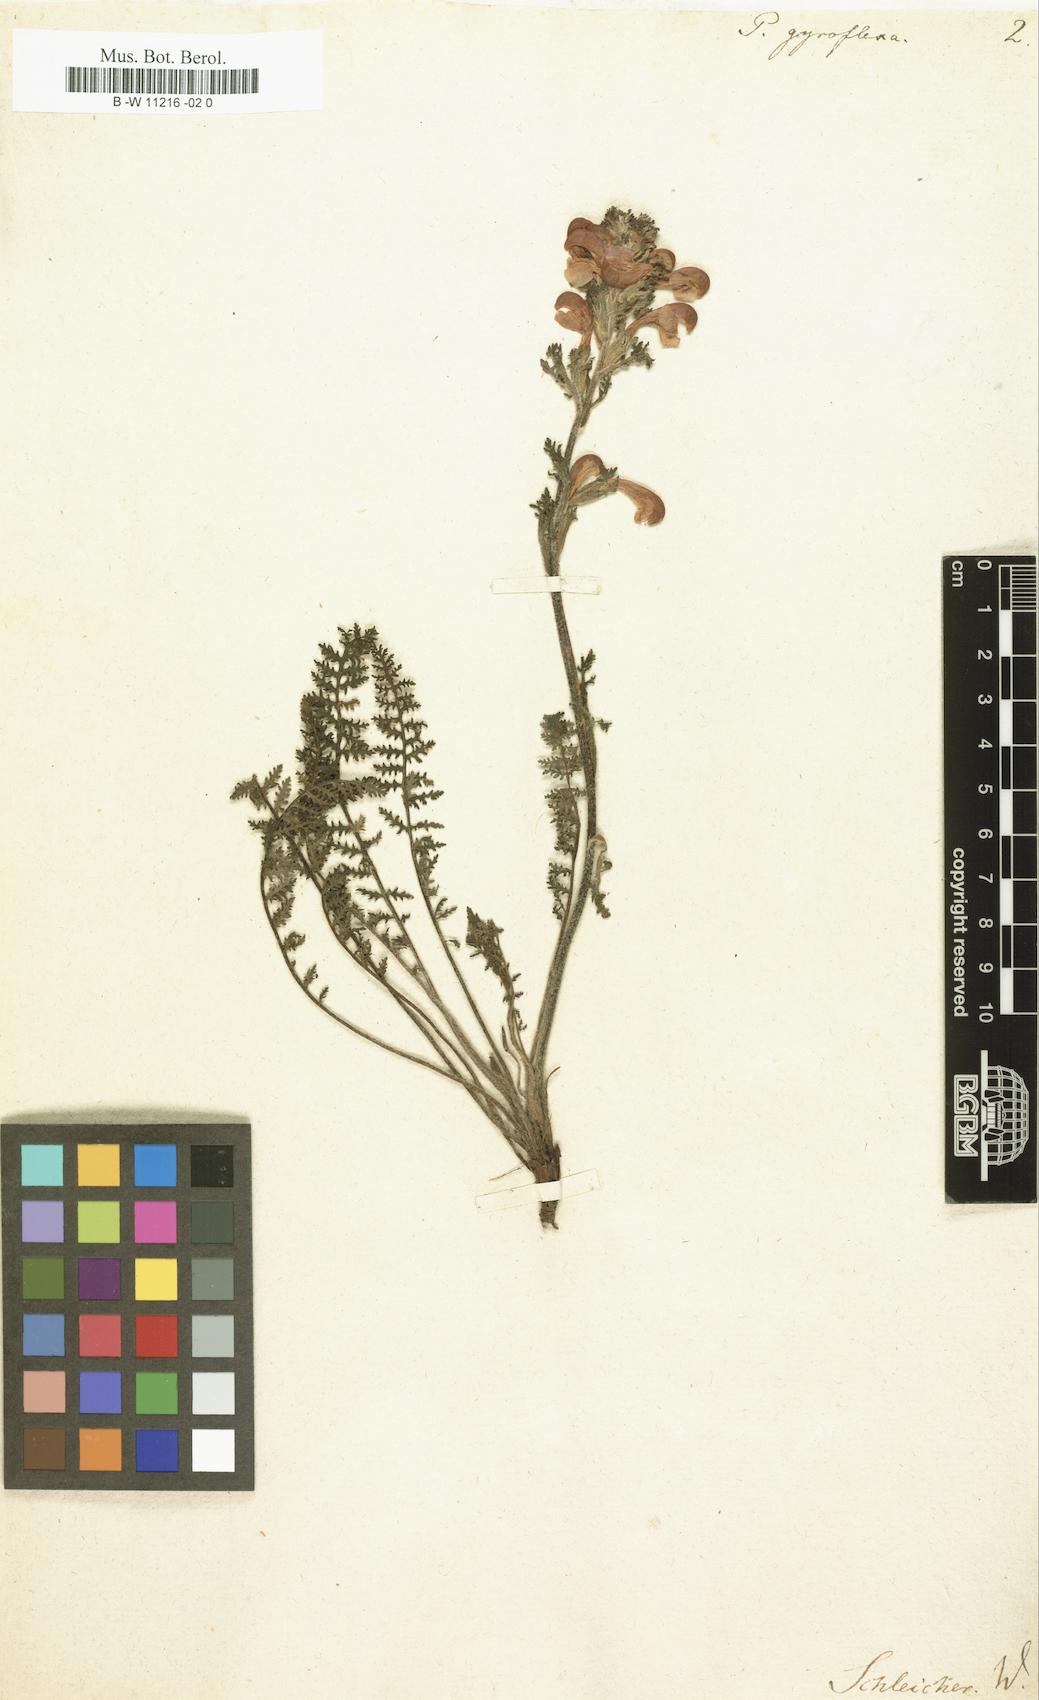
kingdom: Plantae
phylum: Tracheophyta
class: Magnoliopsida
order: Lamiales
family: Orobanchaceae
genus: Pedicularis
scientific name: Pedicularis gyroflexa
